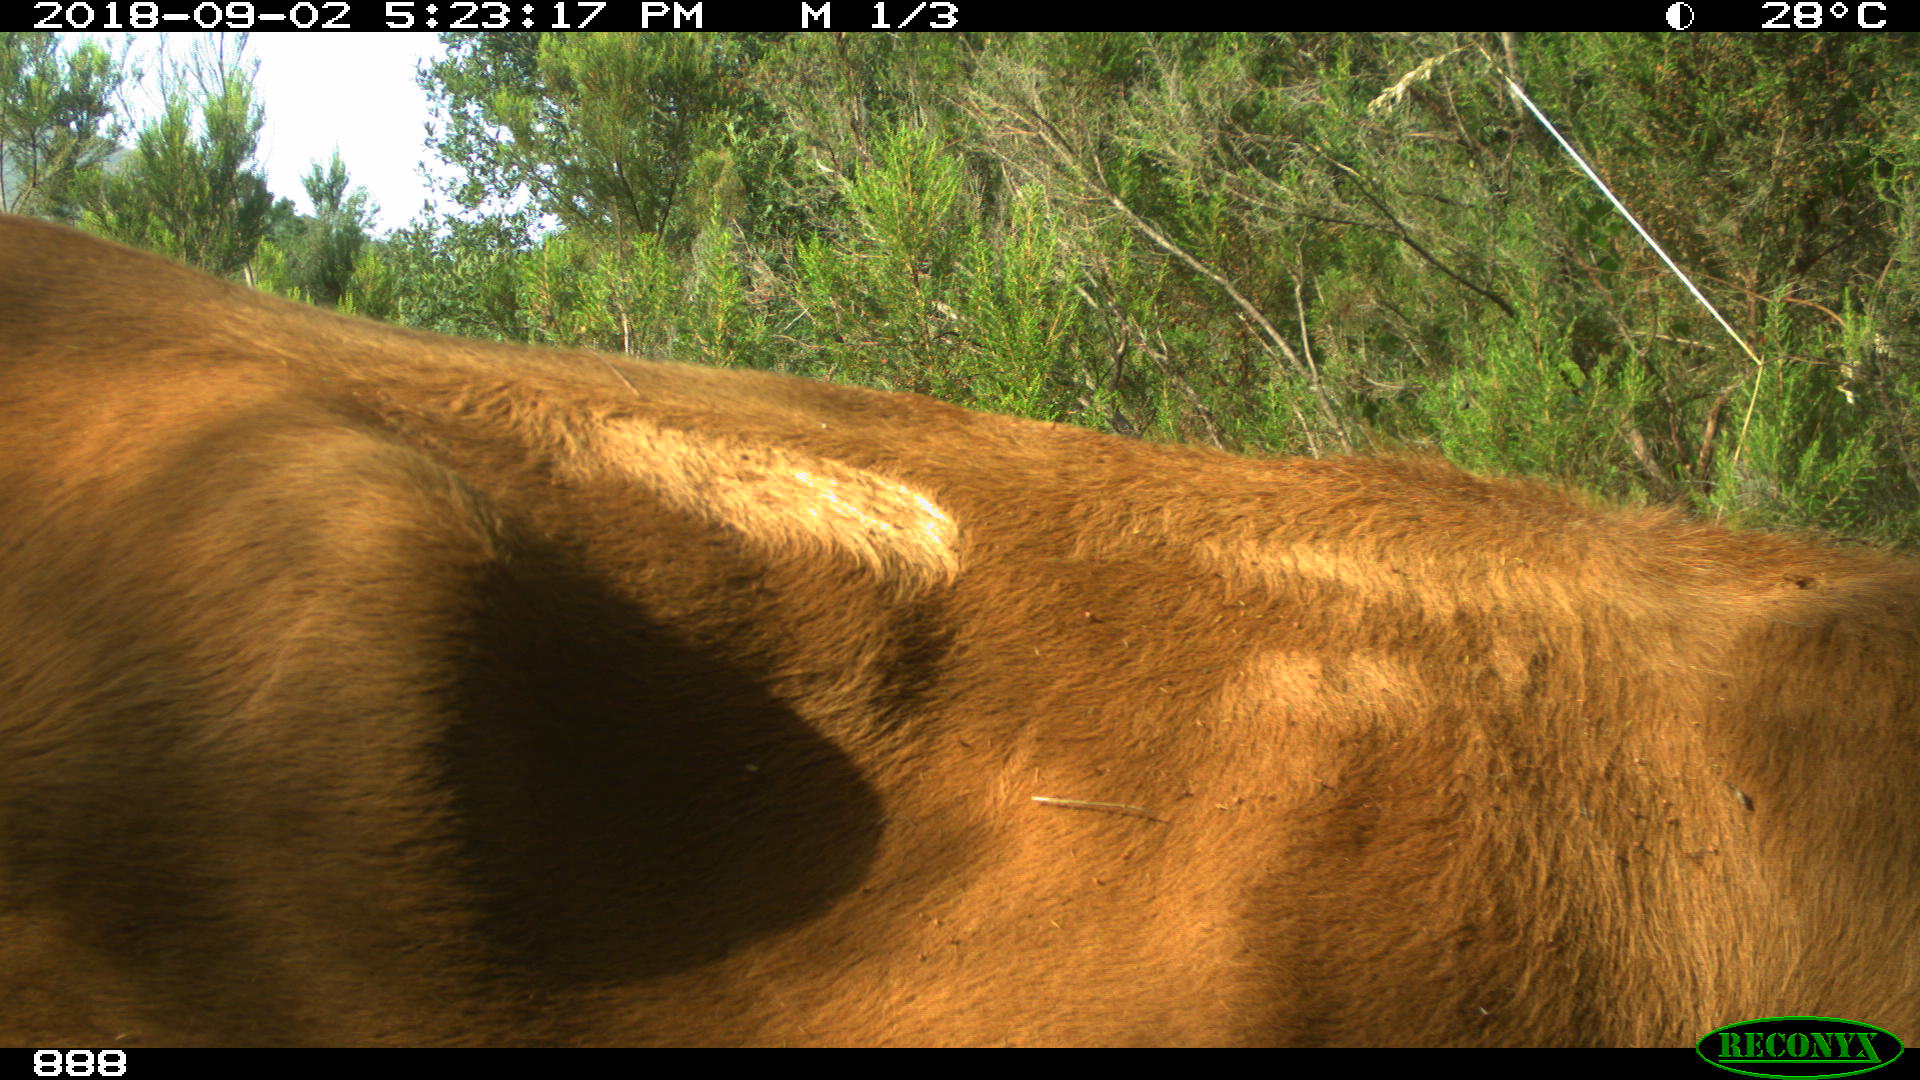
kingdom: Animalia
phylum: Chordata
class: Mammalia
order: Artiodactyla
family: Bovidae
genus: Bos
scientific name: Bos taurus
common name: Domesticated cattle
